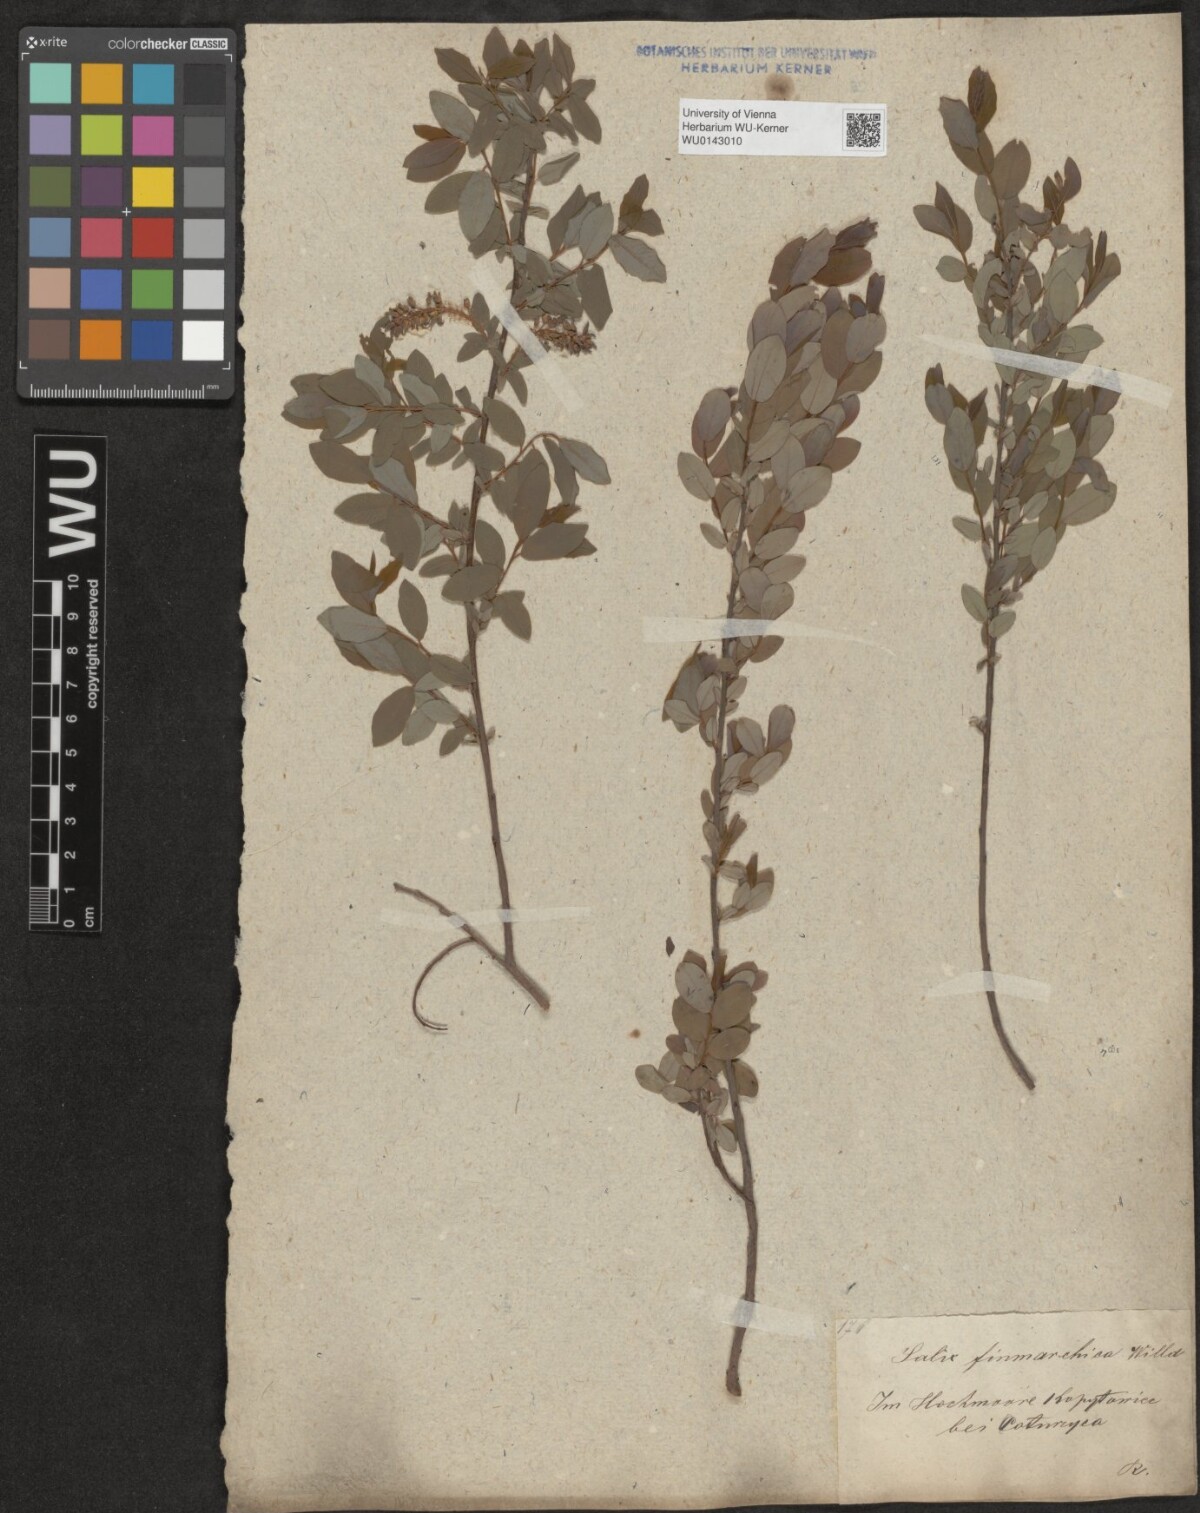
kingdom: Plantae
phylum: Tracheophyta
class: Magnoliopsida
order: Malpighiales
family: Salicaceae
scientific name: Salicaceae
